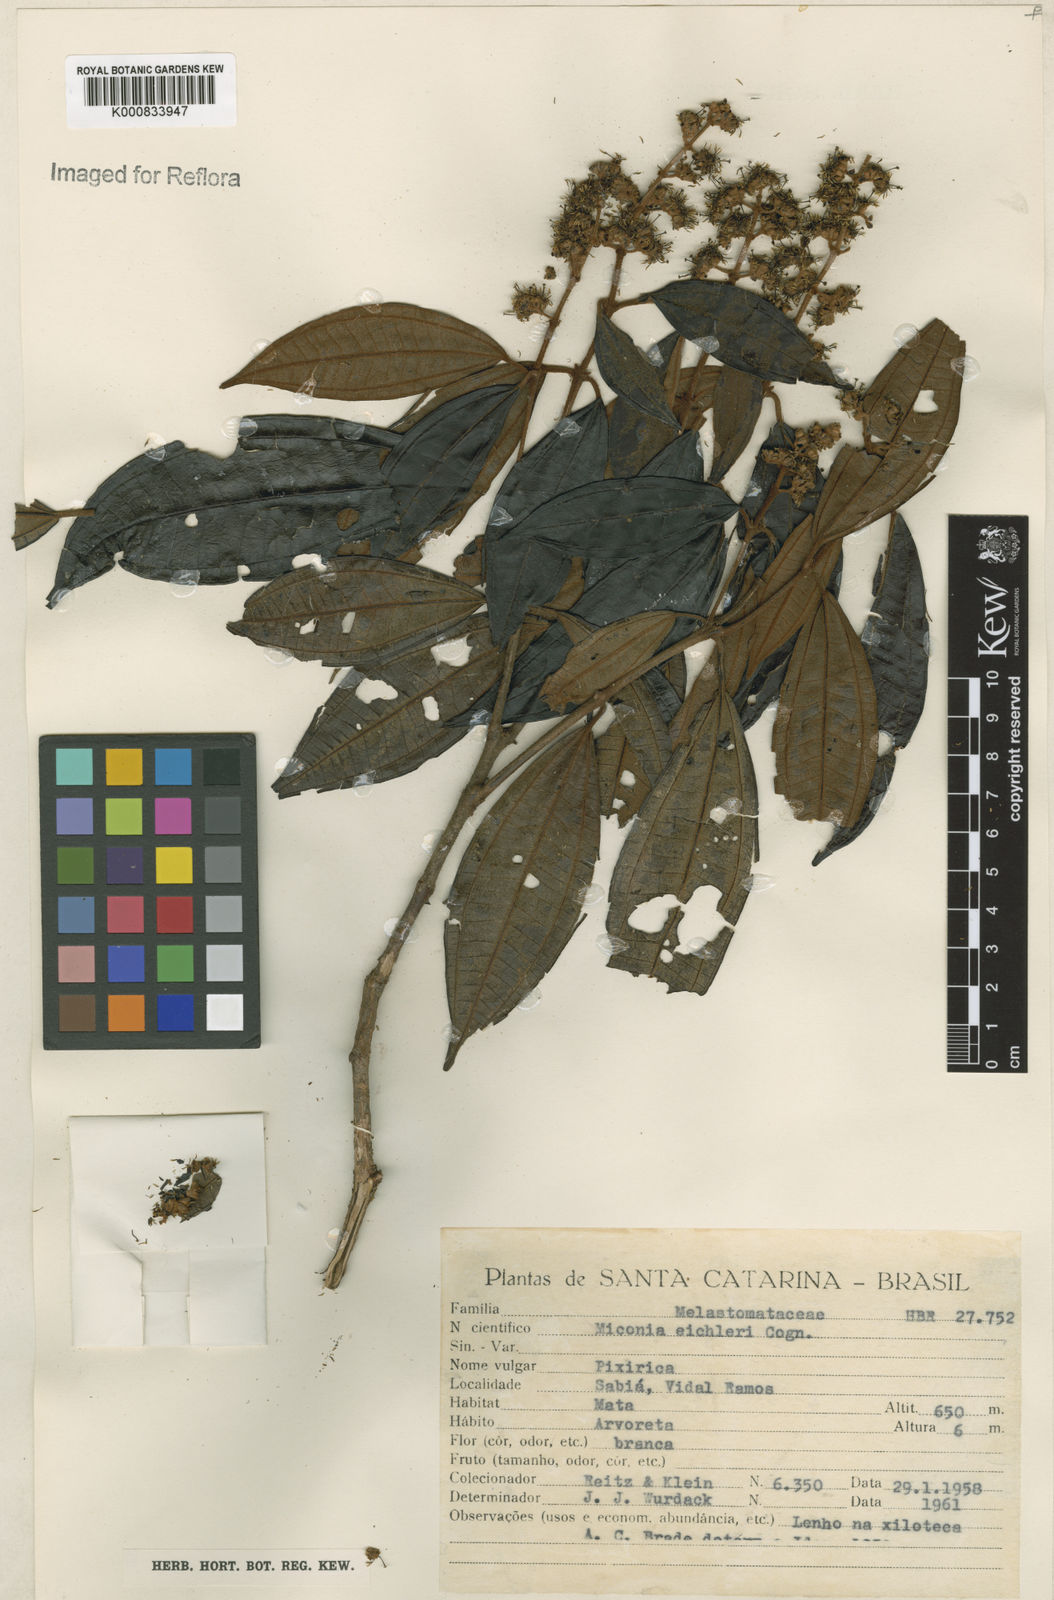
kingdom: Plantae
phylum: Tracheophyta
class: Magnoliopsida
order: Myrtales
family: Melastomataceae
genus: Miconia
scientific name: Miconia valtheri
